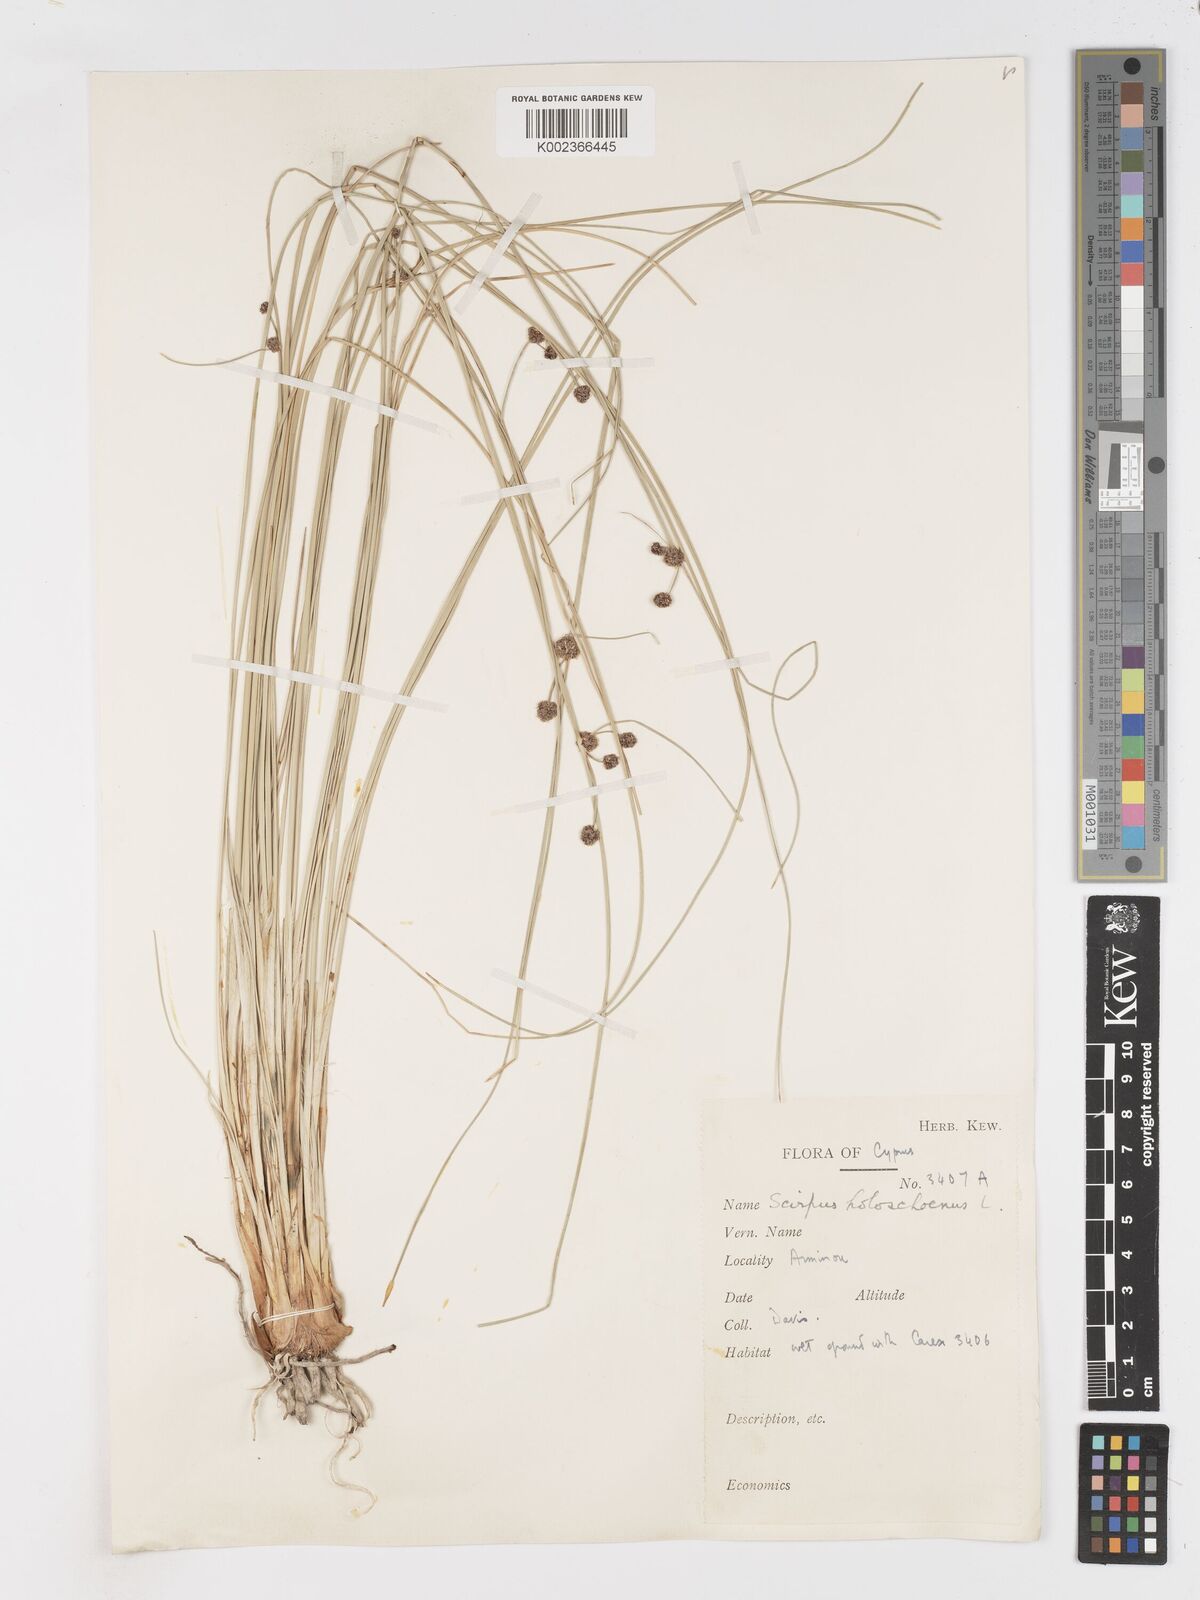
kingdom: Plantae
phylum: Tracheophyta
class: Liliopsida
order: Poales
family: Cyperaceae
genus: Scirpoides
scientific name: Scirpoides holoschoenus
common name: Round-headed club-rush
